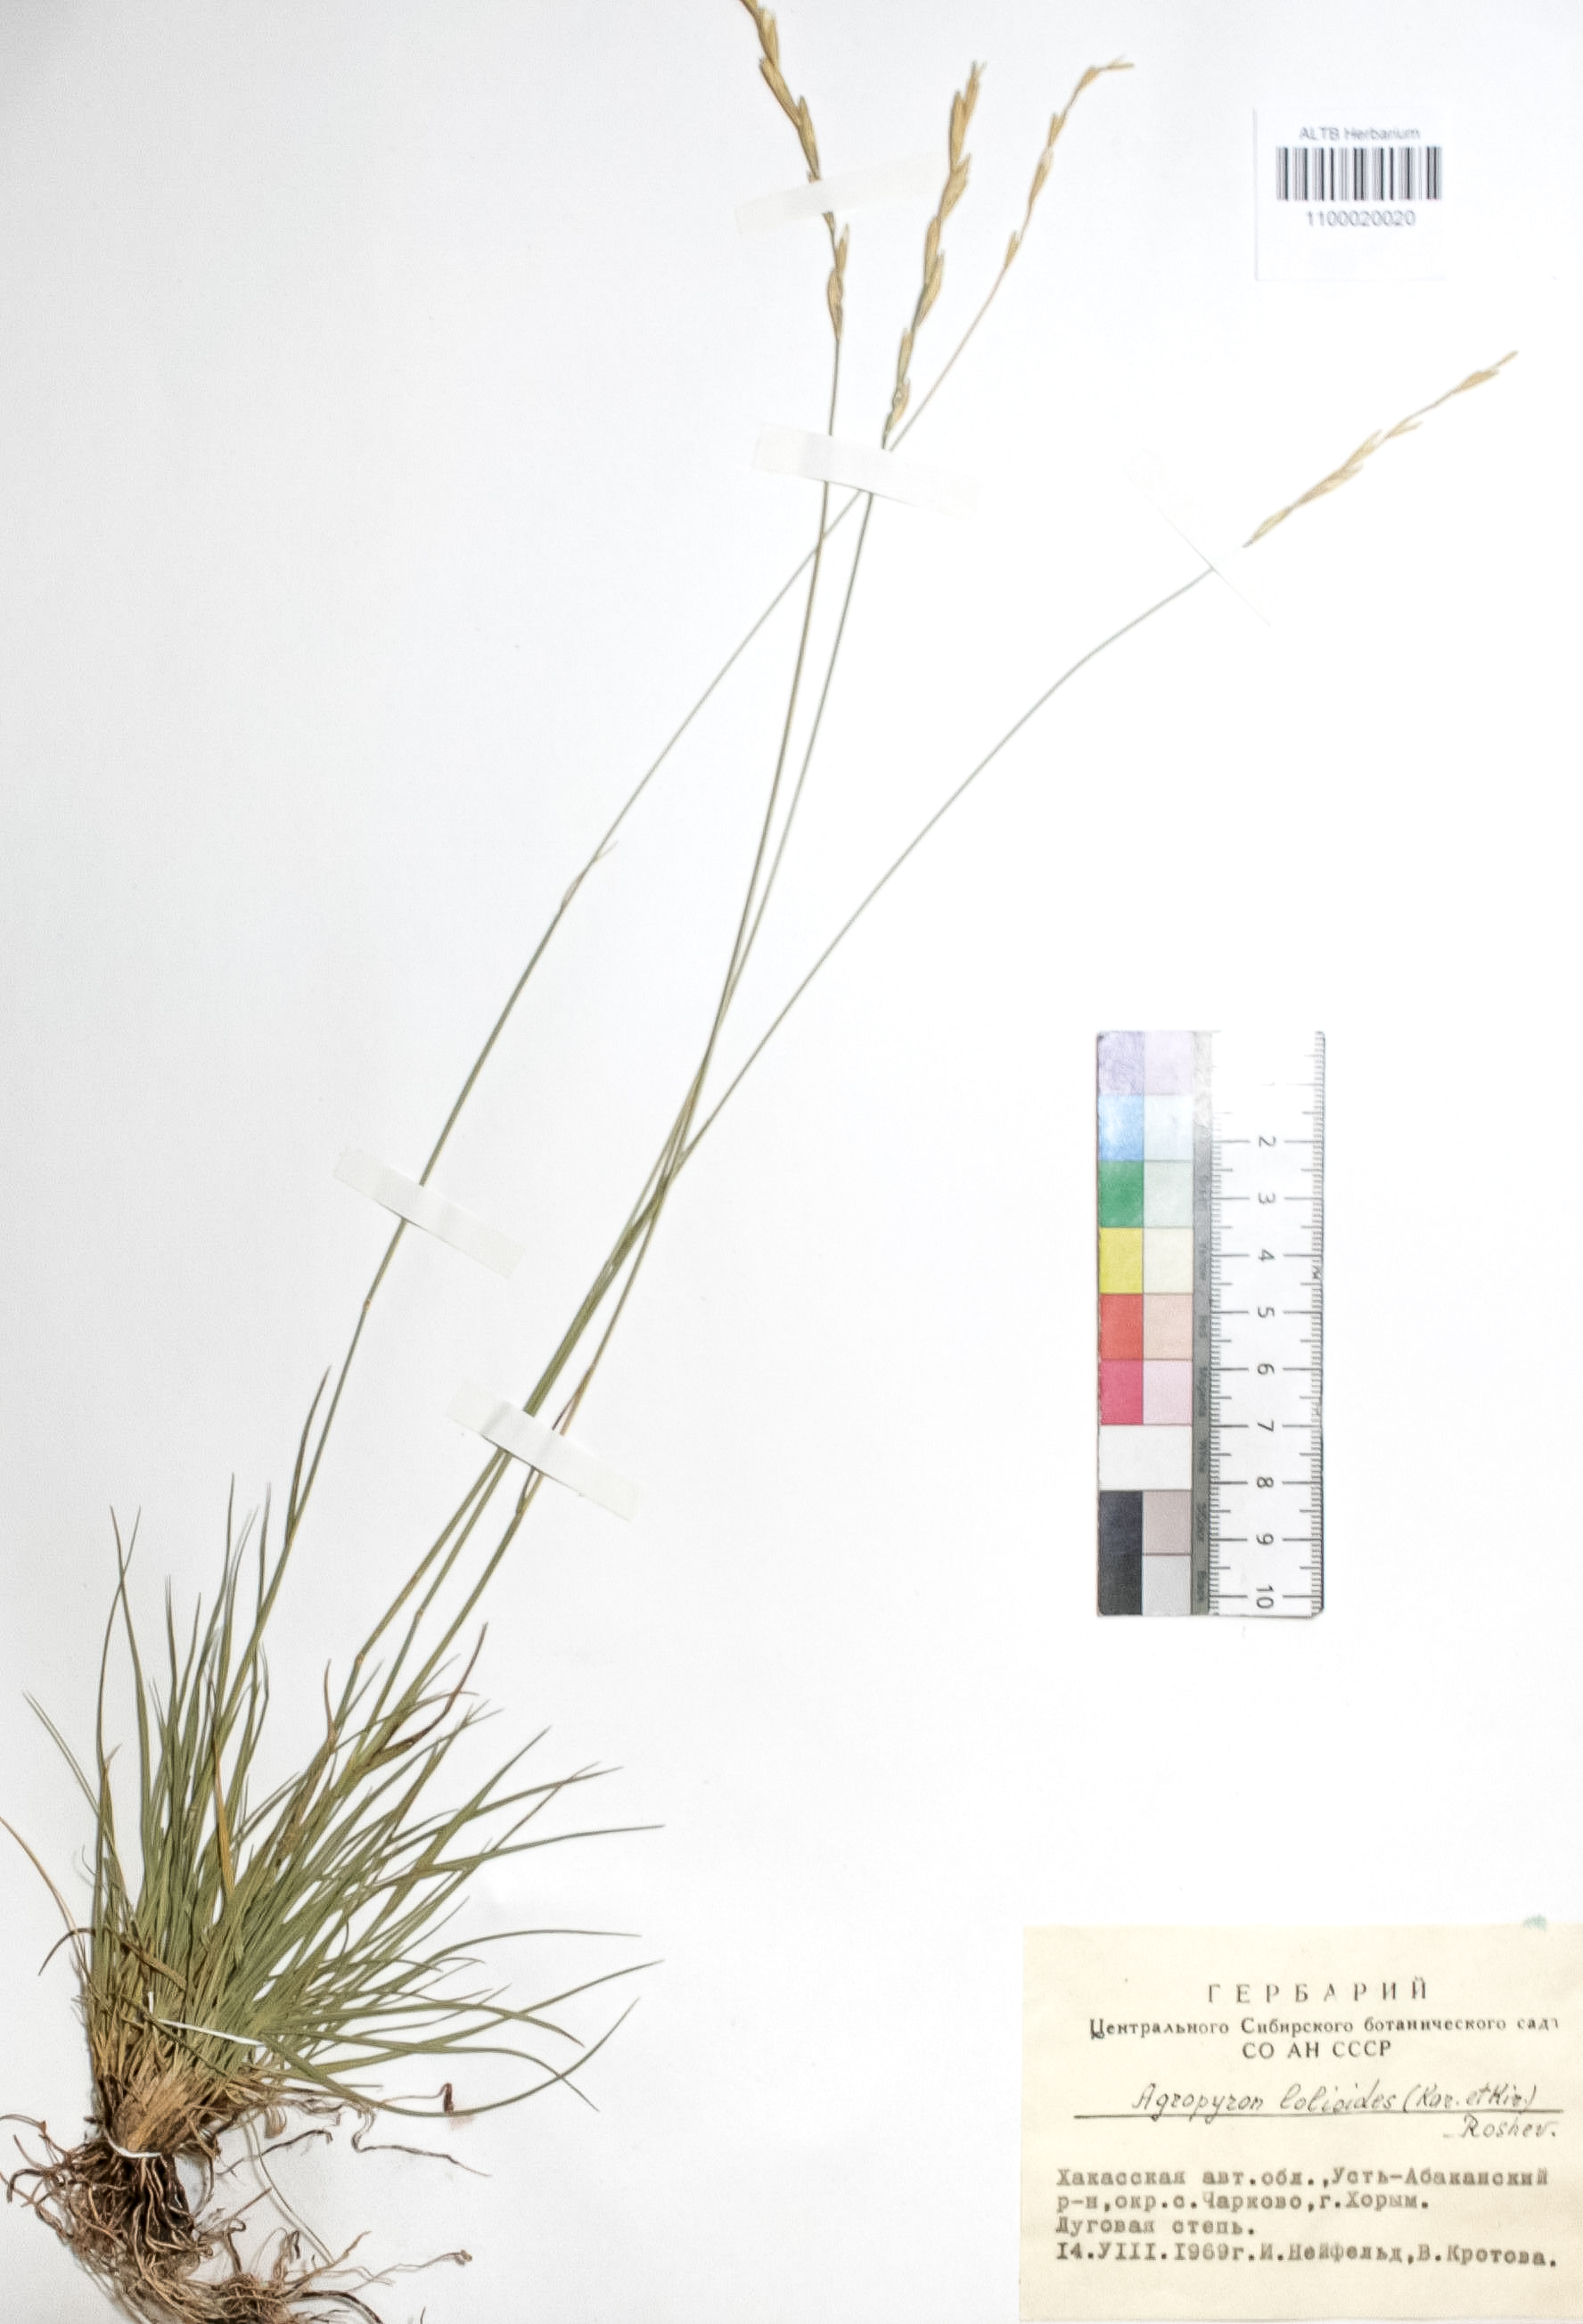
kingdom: Plantae
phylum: Tracheophyta
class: Liliopsida
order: Poales
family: Poaceae
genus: Agropyron
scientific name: Agropyron lolioides
